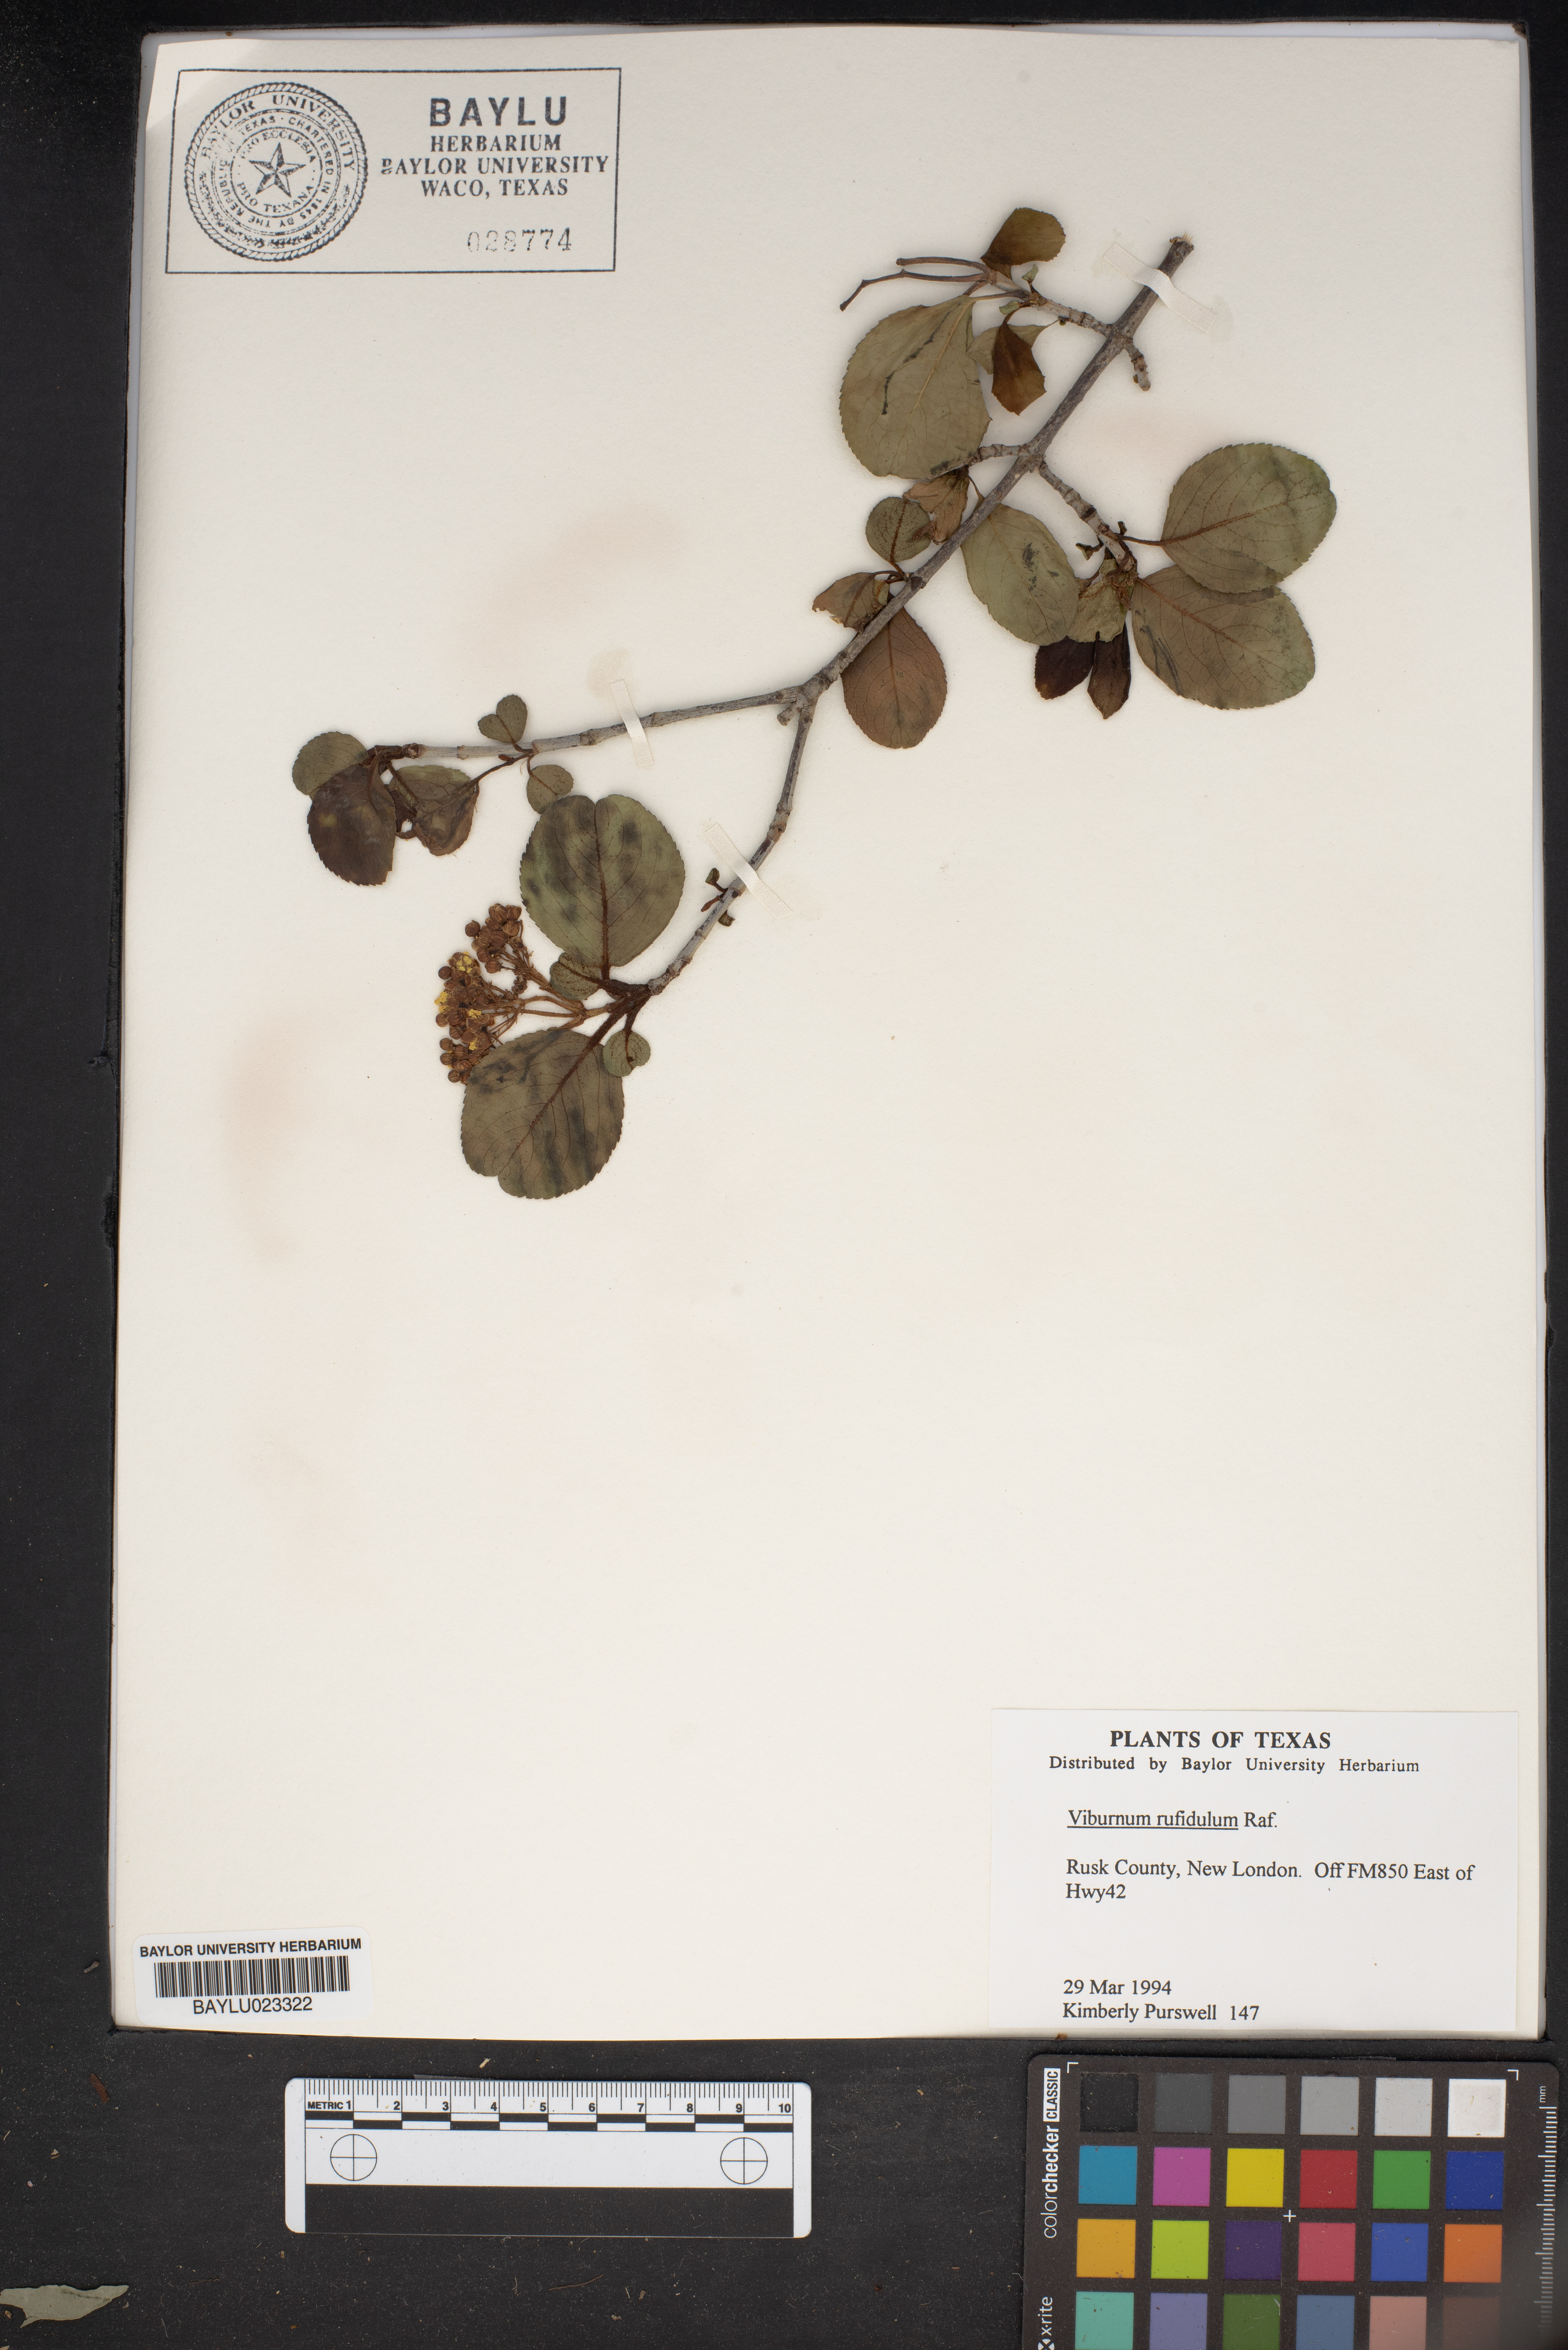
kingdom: Plantae
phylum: Tracheophyta
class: Magnoliopsida
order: Dipsacales
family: Viburnaceae
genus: Viburnum
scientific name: Viburnum rufidulum
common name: Blue haw
